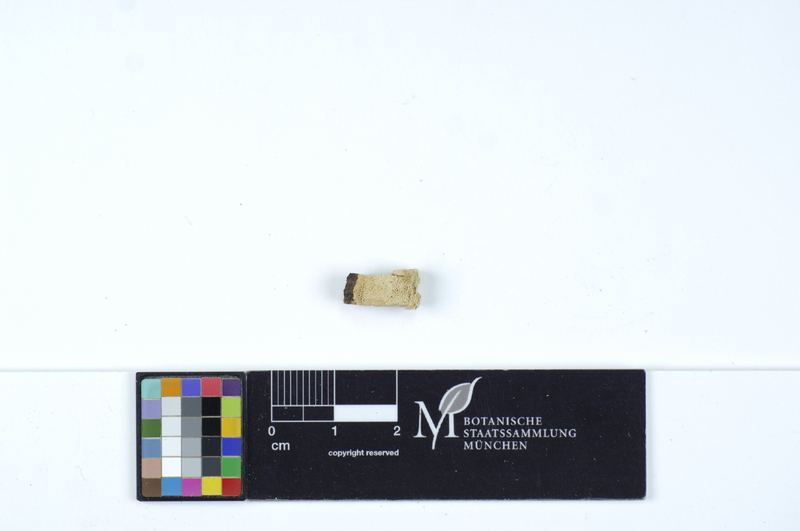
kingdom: Plantae
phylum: Tracheophyta
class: Magnoliopsida
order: Malpighiales
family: Salicaceae
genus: Populus
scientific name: Populus tremula
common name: European aspen
